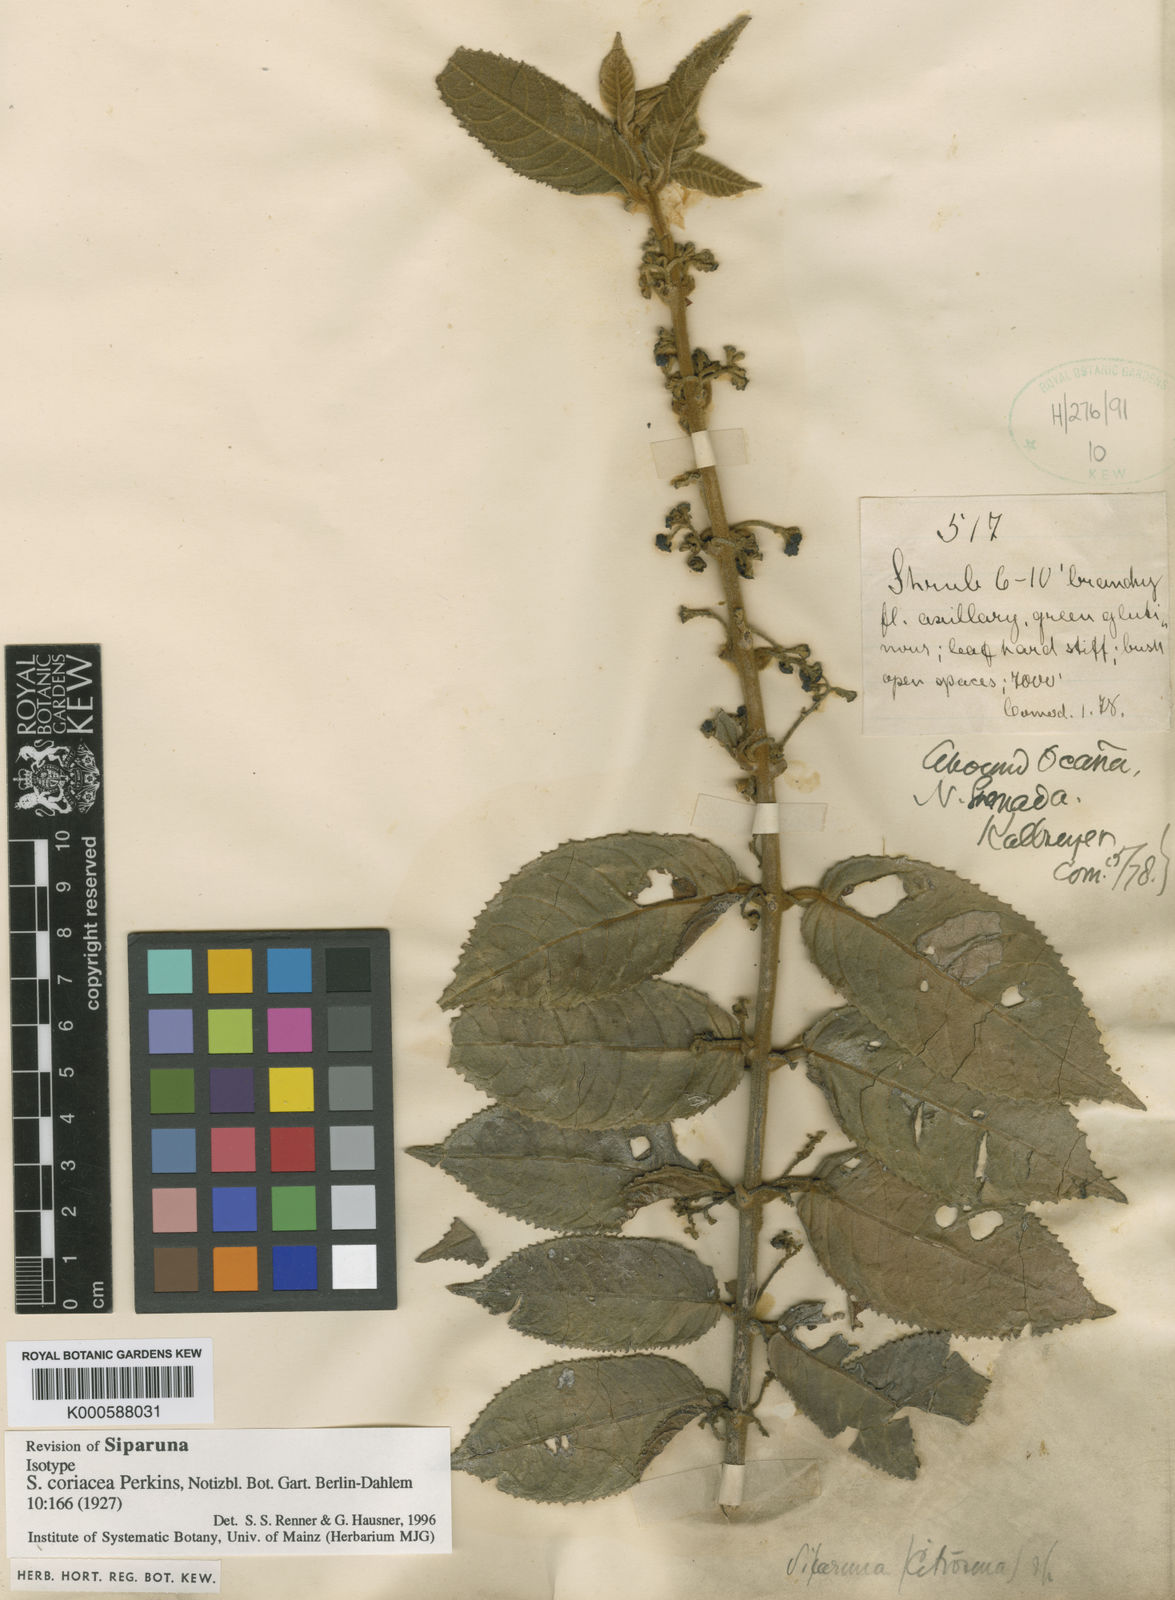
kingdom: Plantae
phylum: Tracheophyta
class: Magnoliopsida
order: Laurales
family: Siparunaceae
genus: Siparuna
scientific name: Siparuna gesnerioides
